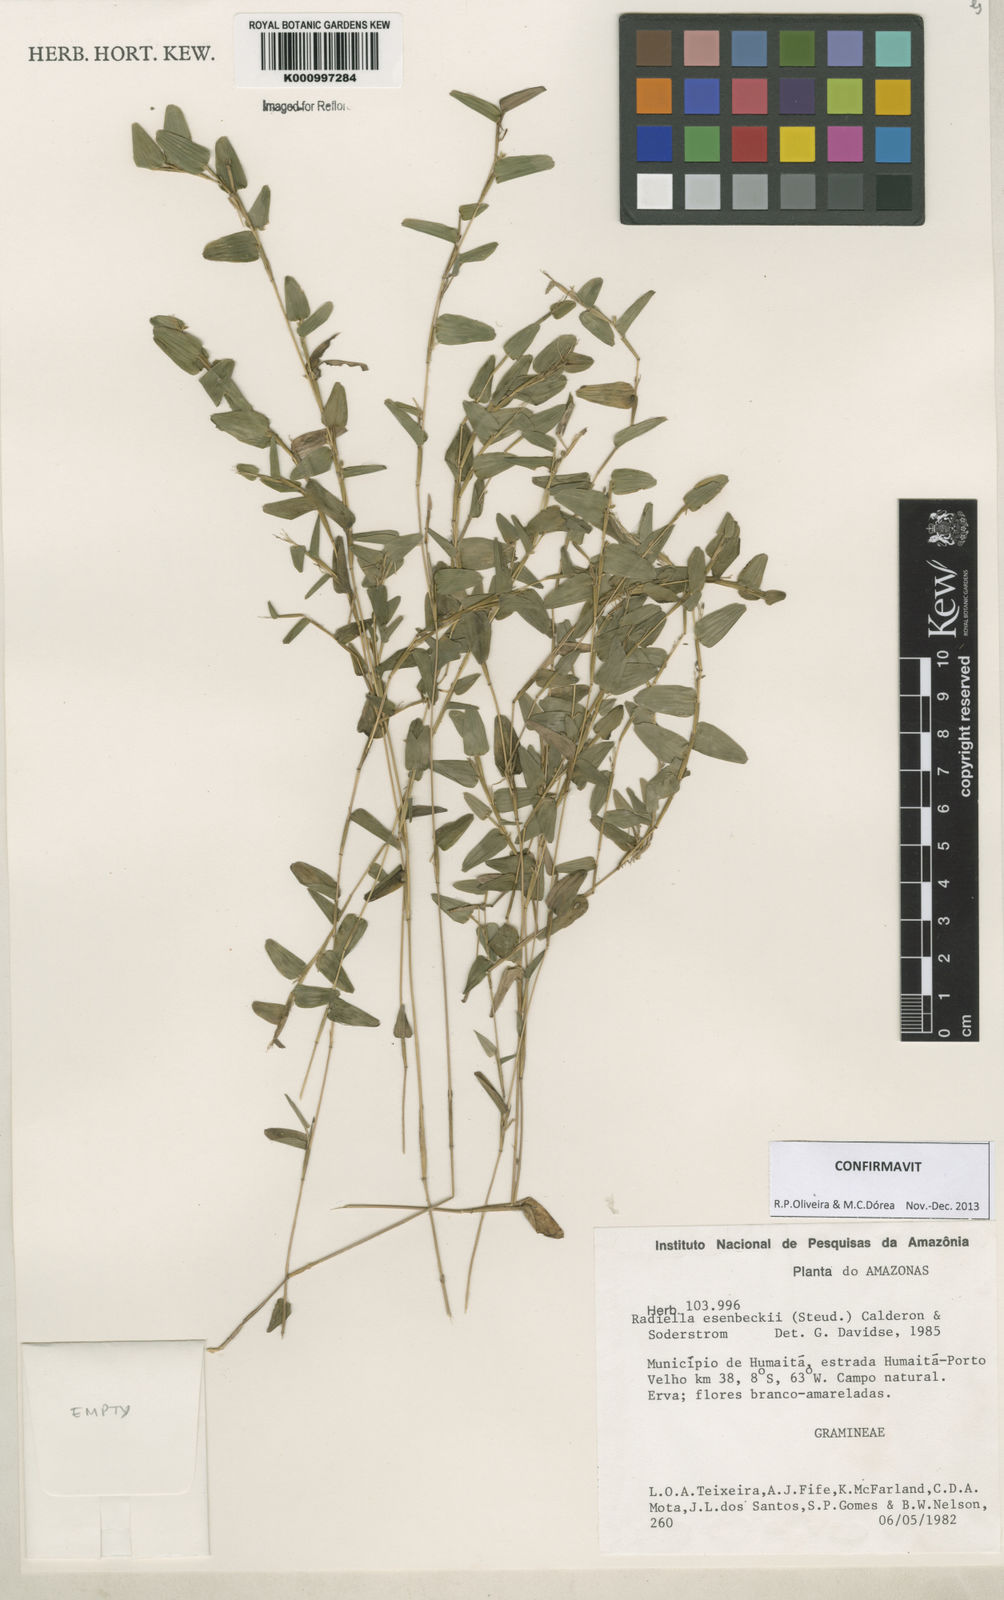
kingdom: Plantae
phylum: Tracheophyta
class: Liliopsida
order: Poales
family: Poaceae
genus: Raddiella
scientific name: Raddiella
